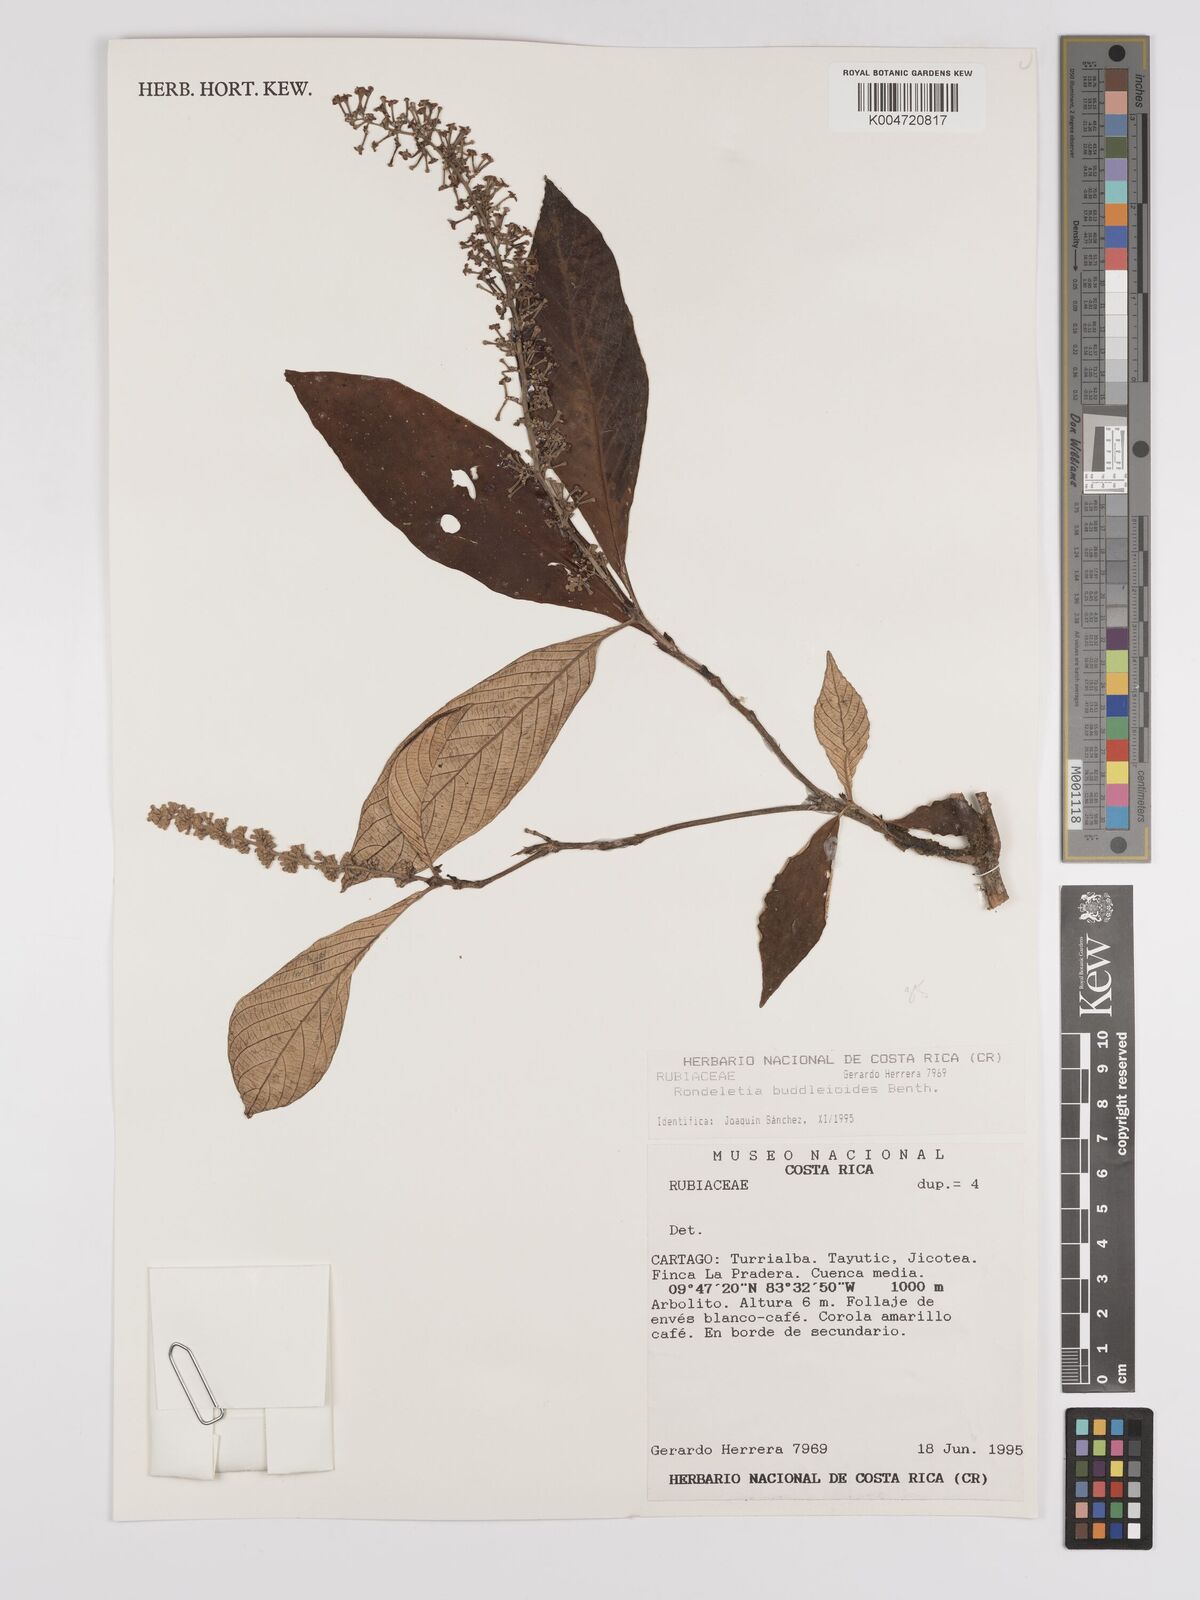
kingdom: Plantae
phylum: Tracheophyta
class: Magnoliopsida
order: Gentianales
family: Rubiaceae
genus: Arachnothryx
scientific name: Arachnothryx buddleioides
